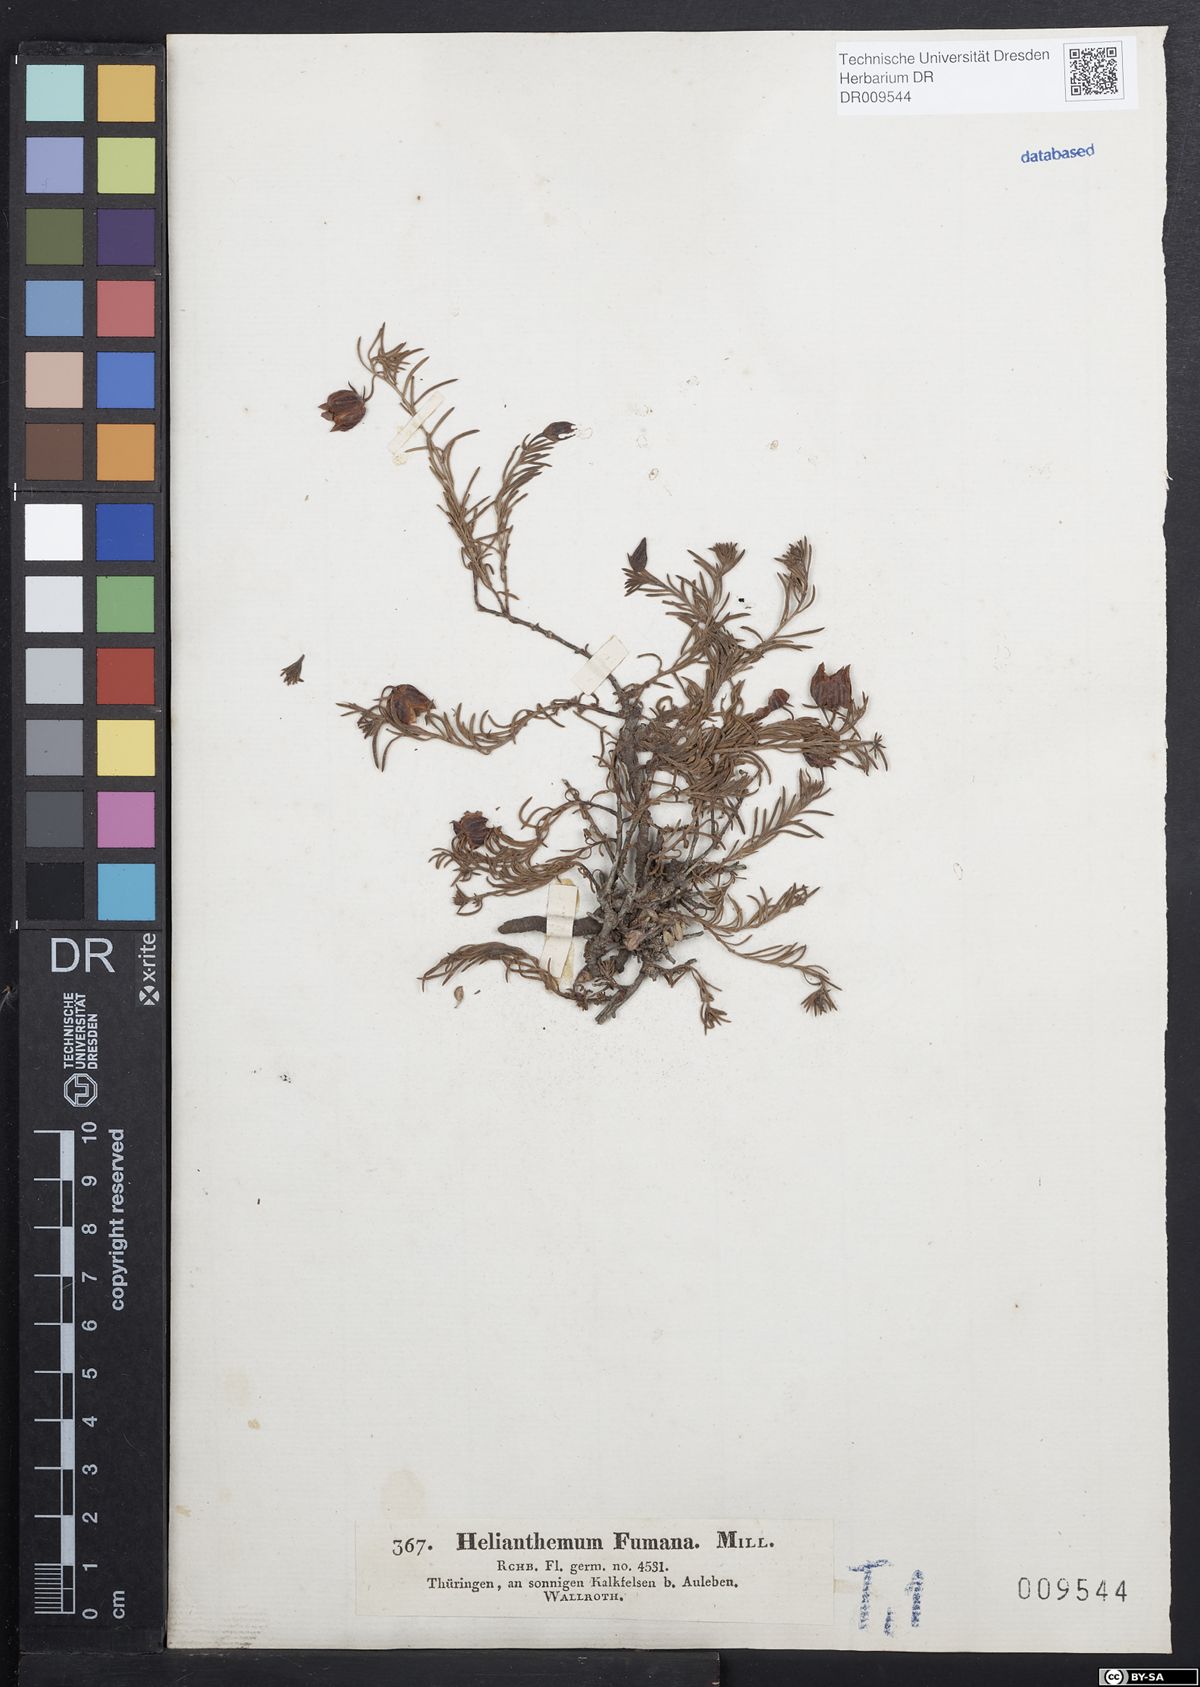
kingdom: Plantae
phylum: Tracheophyta
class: Magnoliopsida
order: Malvales
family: Cistaceae
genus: Fumana
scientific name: Fumana procumbens
